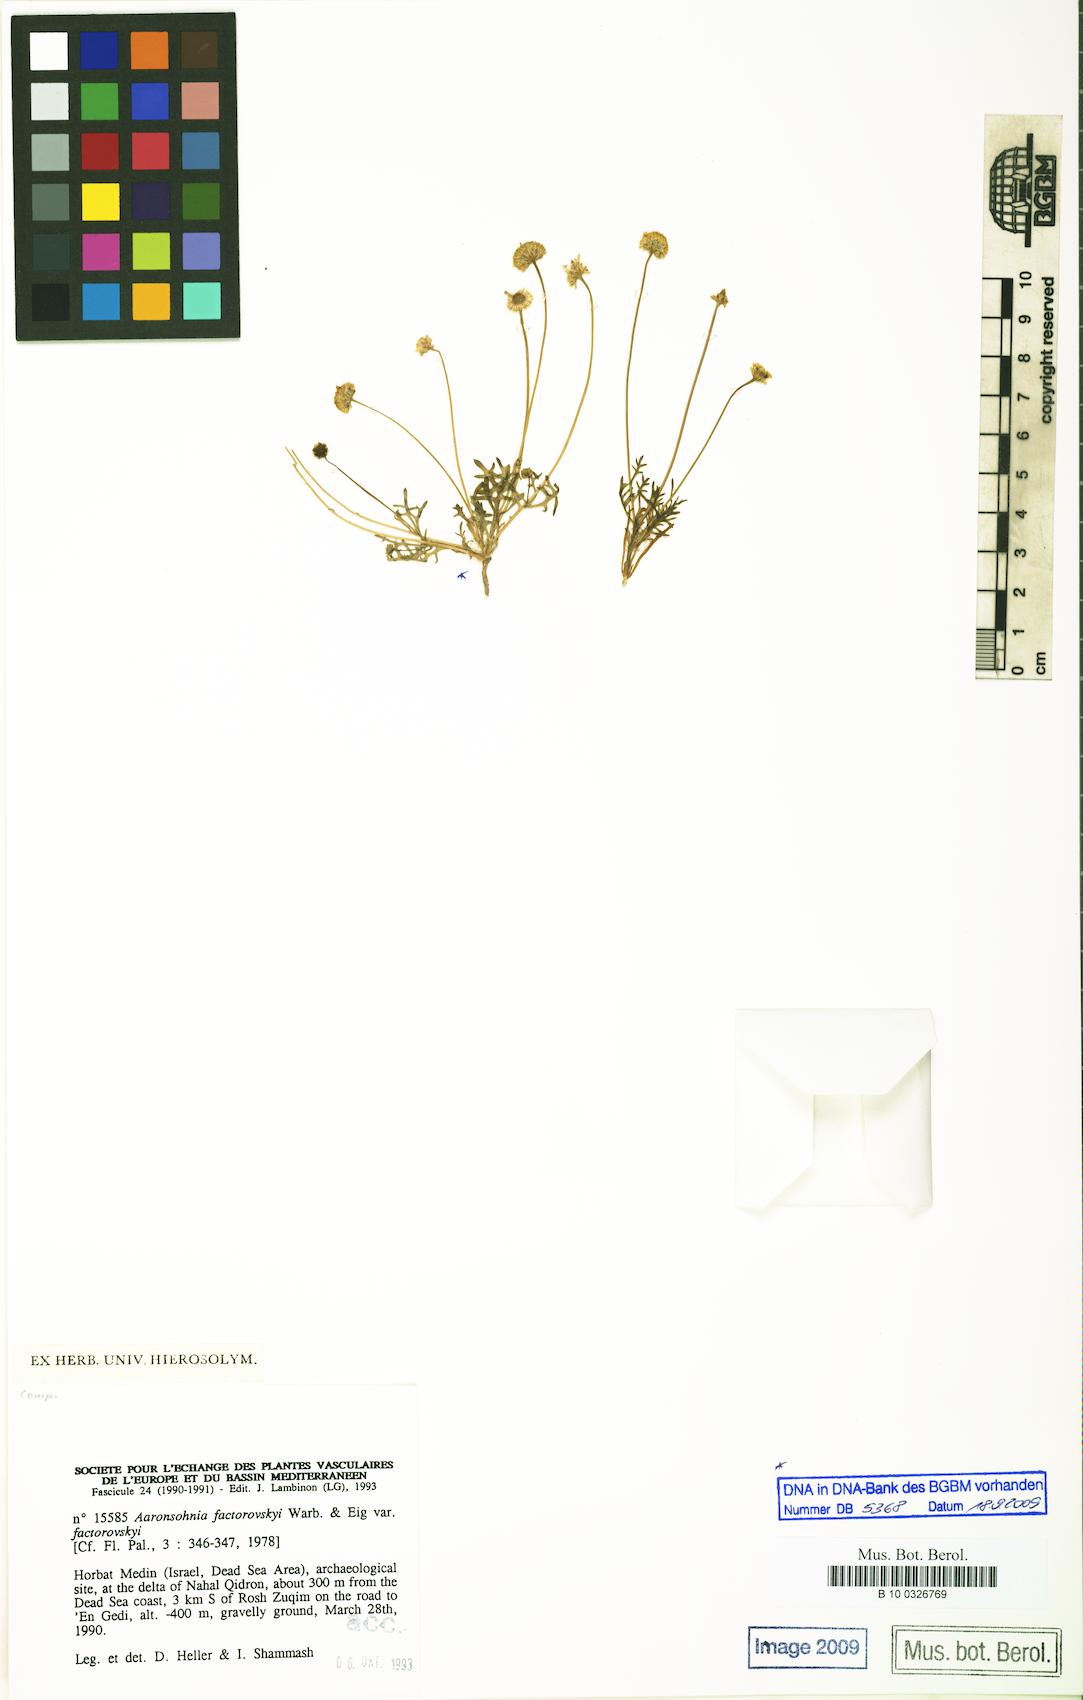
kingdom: Plantae
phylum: Tracheophyta
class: Magnoliopsida
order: Asterales
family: Asteraceae
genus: Otoglyphis
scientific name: Otoglyphis factorovskyi
